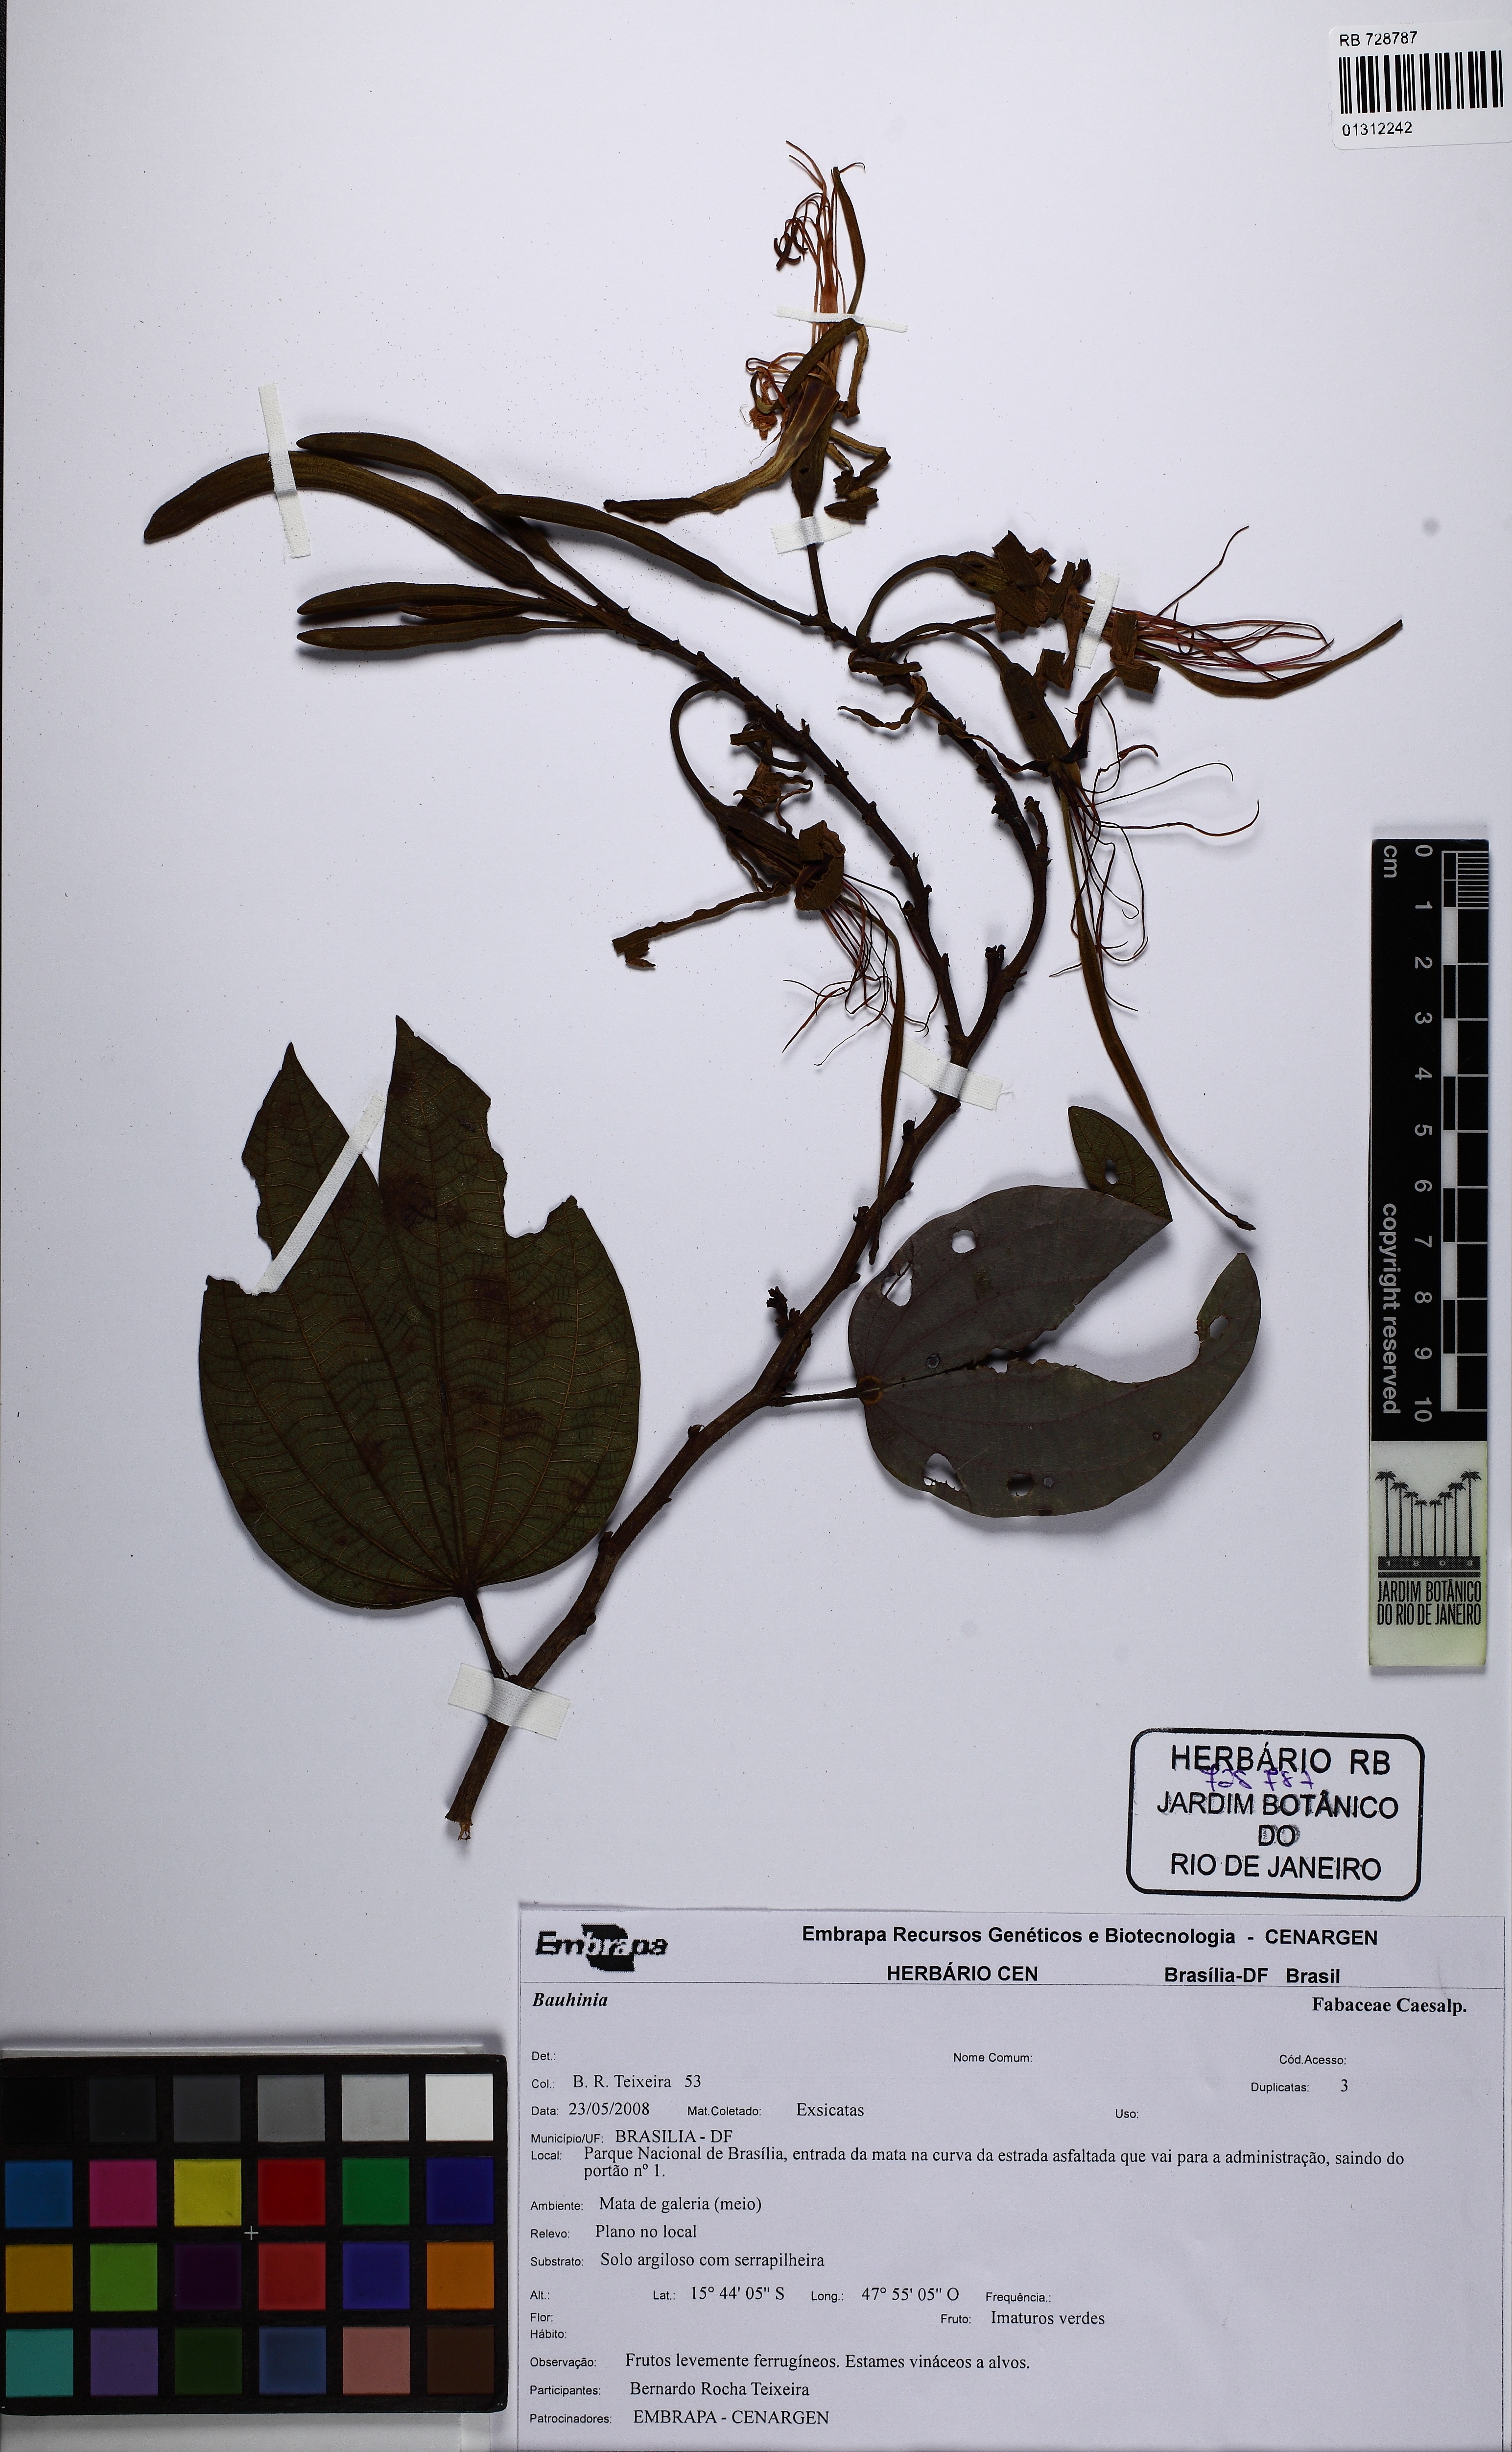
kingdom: Plantae
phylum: Tracheophyta
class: Magnoliopsida
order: Fabales
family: Fabaceae
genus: Bauhinia
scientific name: Bauhinia
